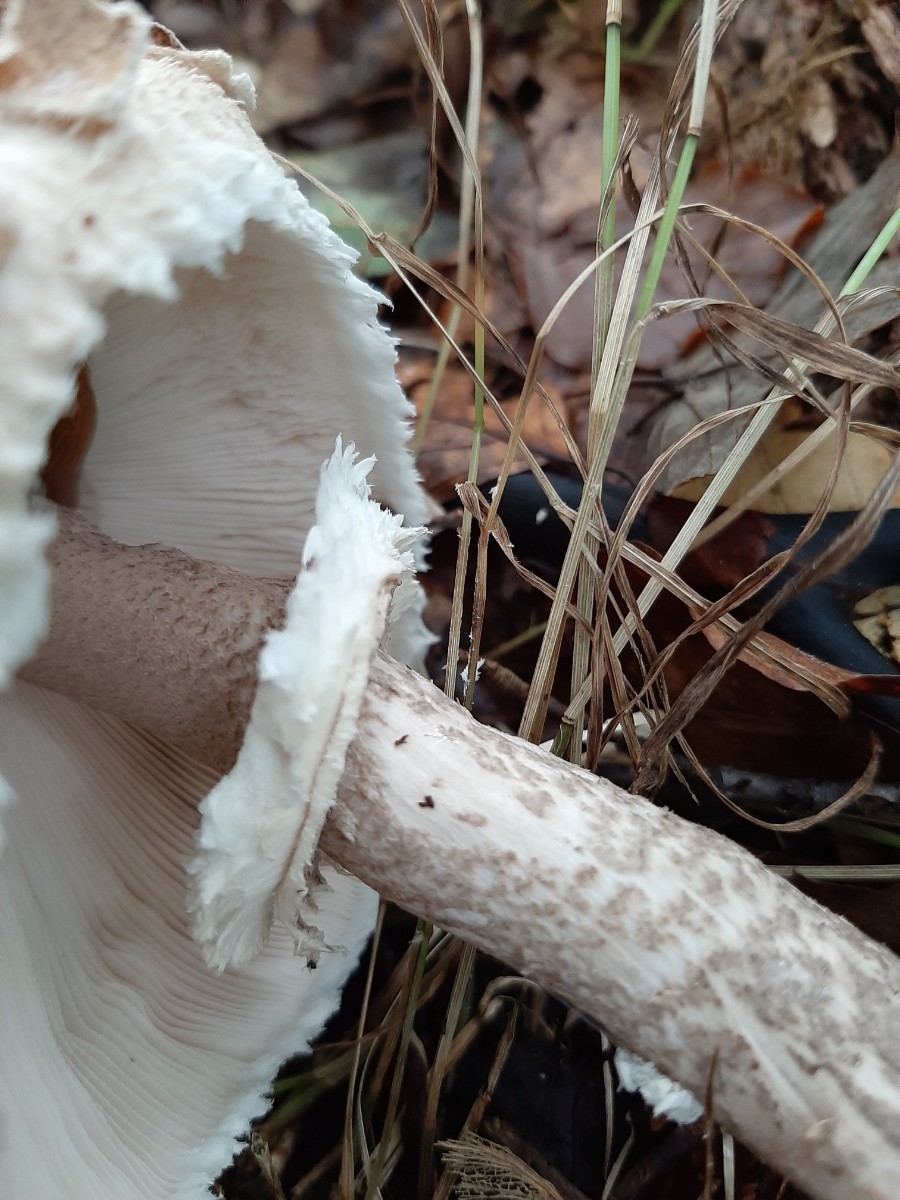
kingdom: Fungi
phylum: Basidiomycota
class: Agaricomycetes
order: Agaricales
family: Agaricaceae
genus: Chlorophyllum
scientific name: Chlorophyllum olivieri
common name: almindelig rabarberhat
